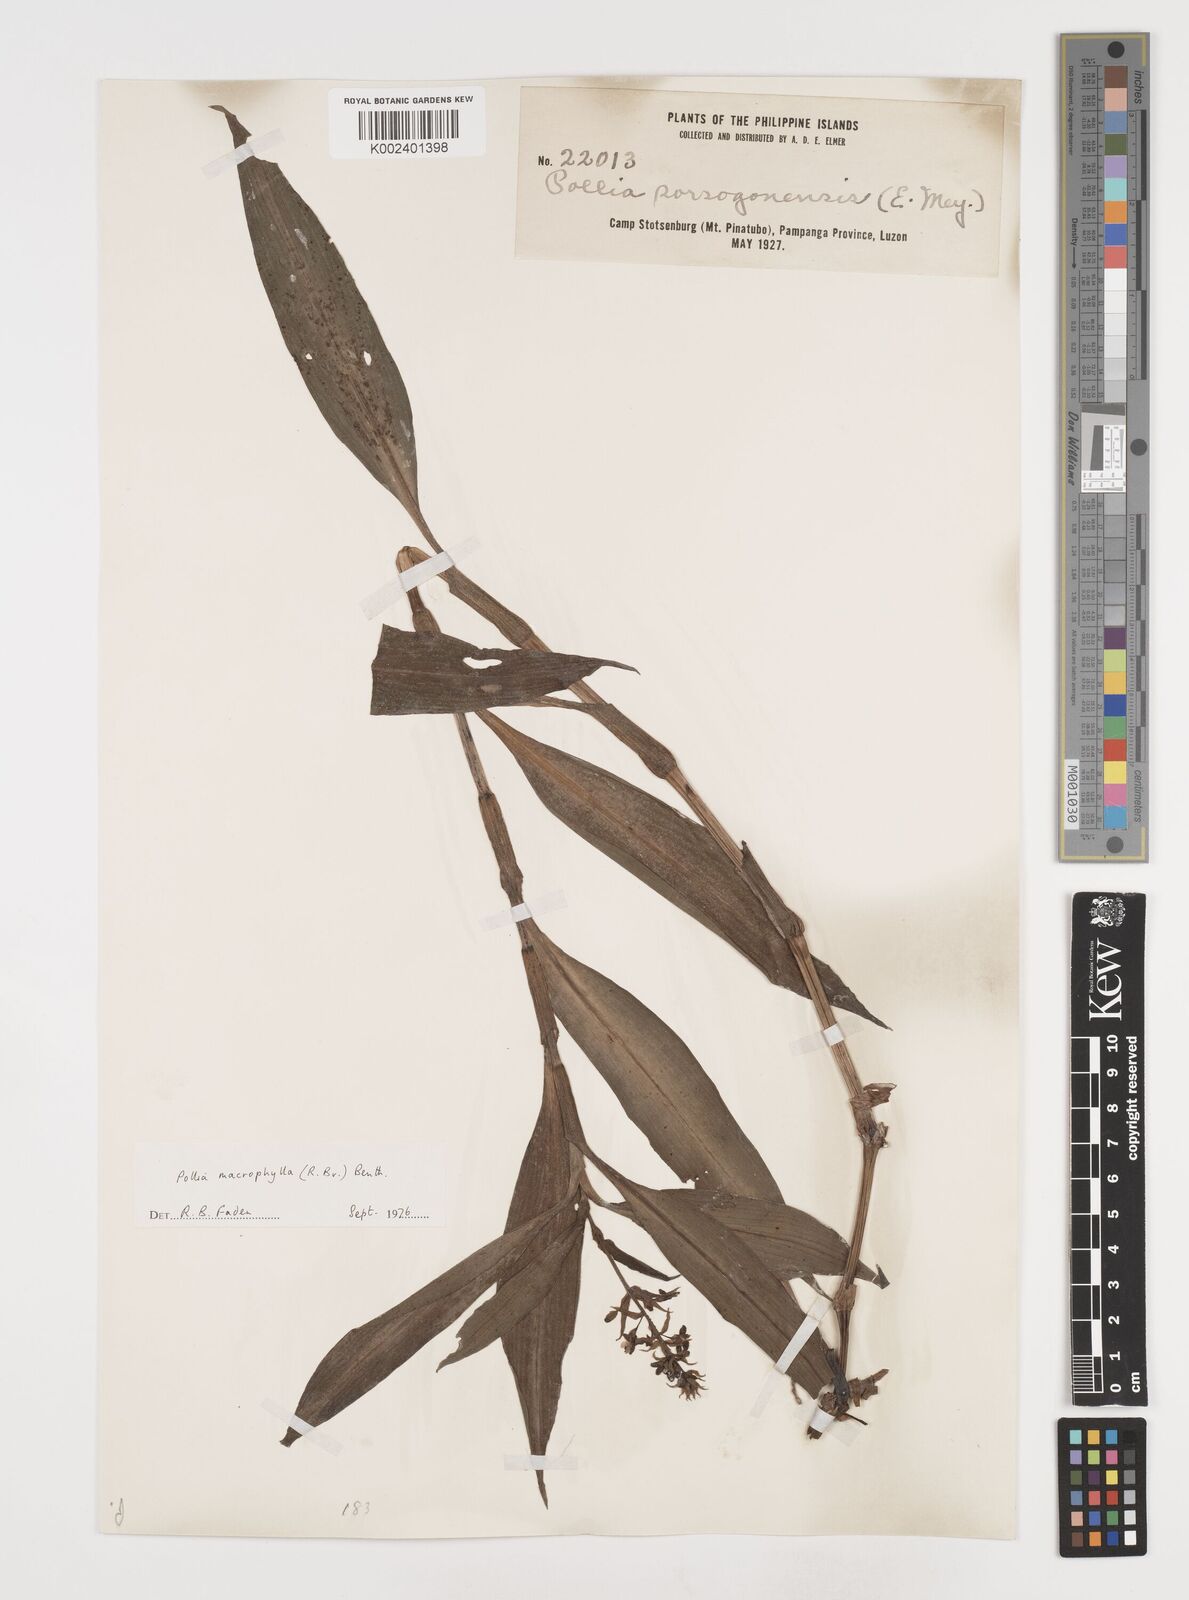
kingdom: Plantae
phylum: Tracheophyta
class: Liliopsida
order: Commelinales
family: Commelinaceae
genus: Pollia
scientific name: Pollia macrophylla
